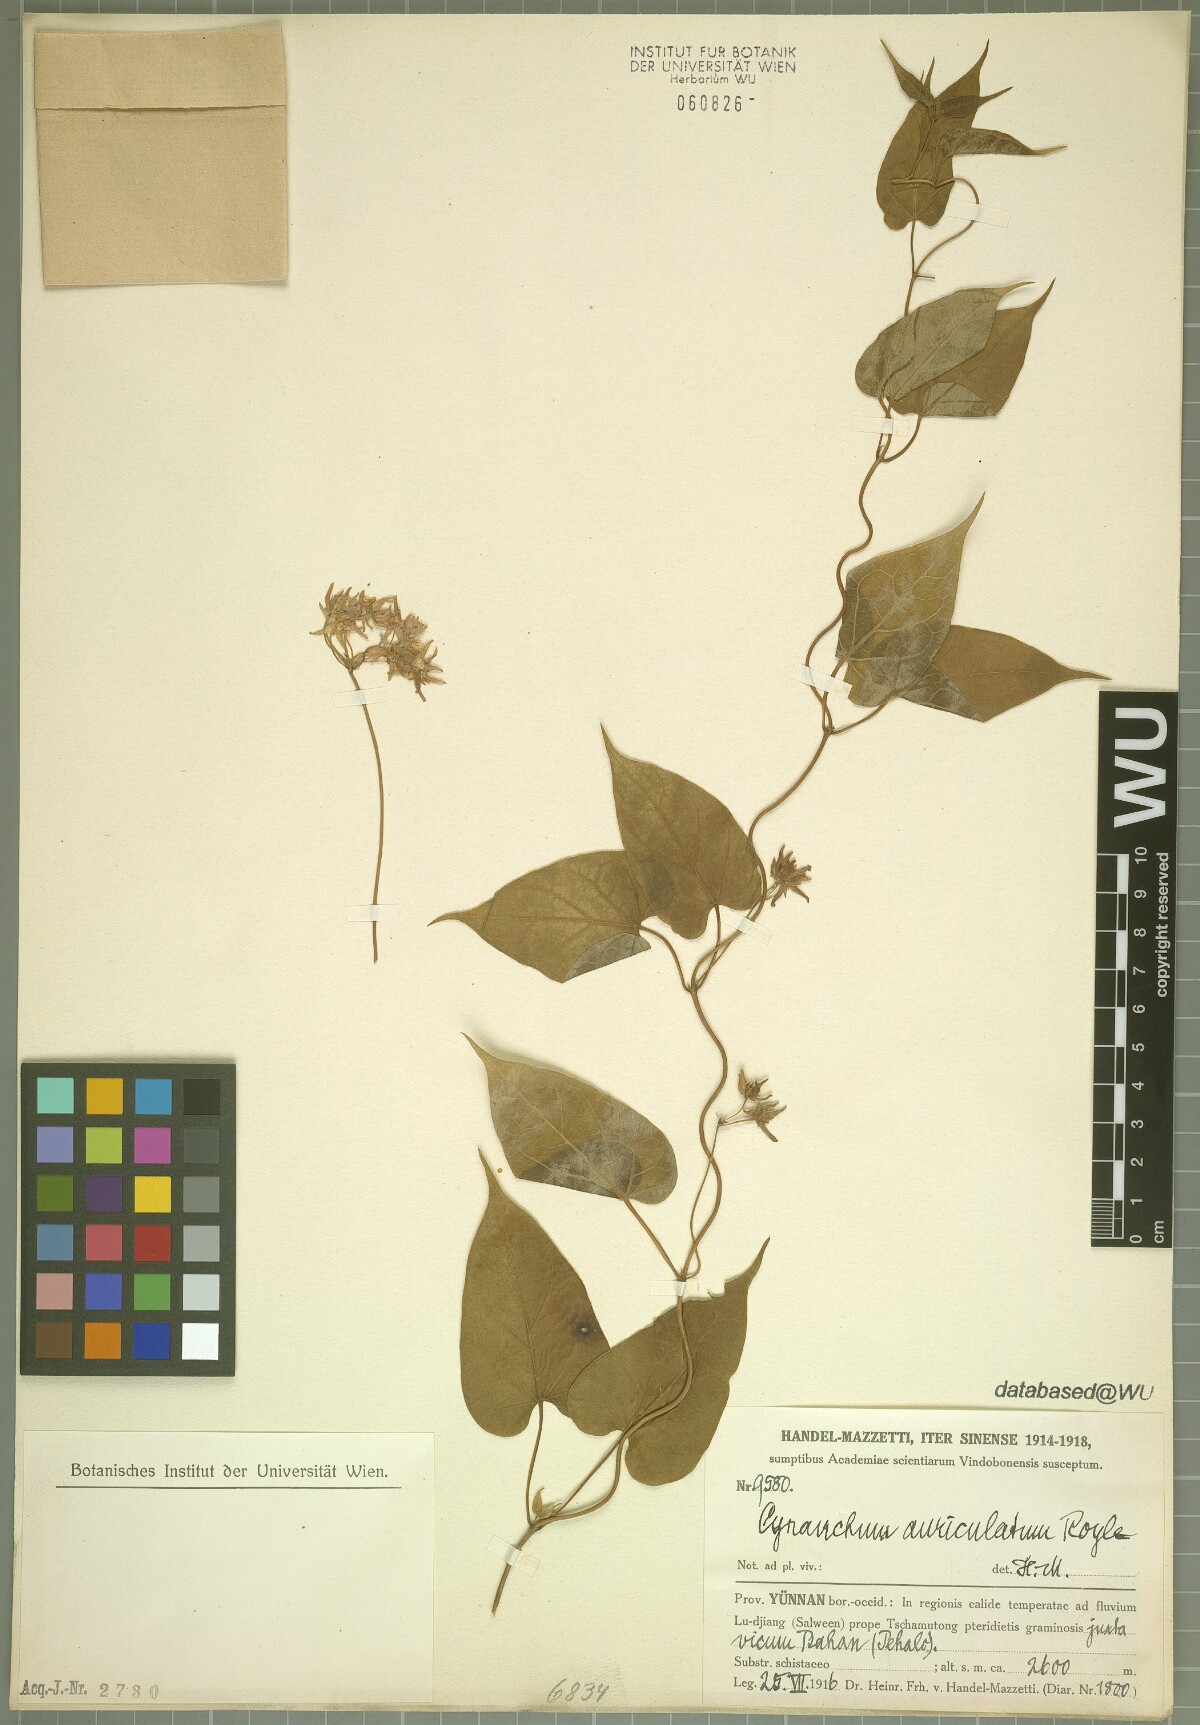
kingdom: Plantae
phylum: Tracheophyta
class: Magnoliopsida
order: Gentianales
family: Apocynaceae
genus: Cynanchum
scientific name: Cynanchum auriculatum
